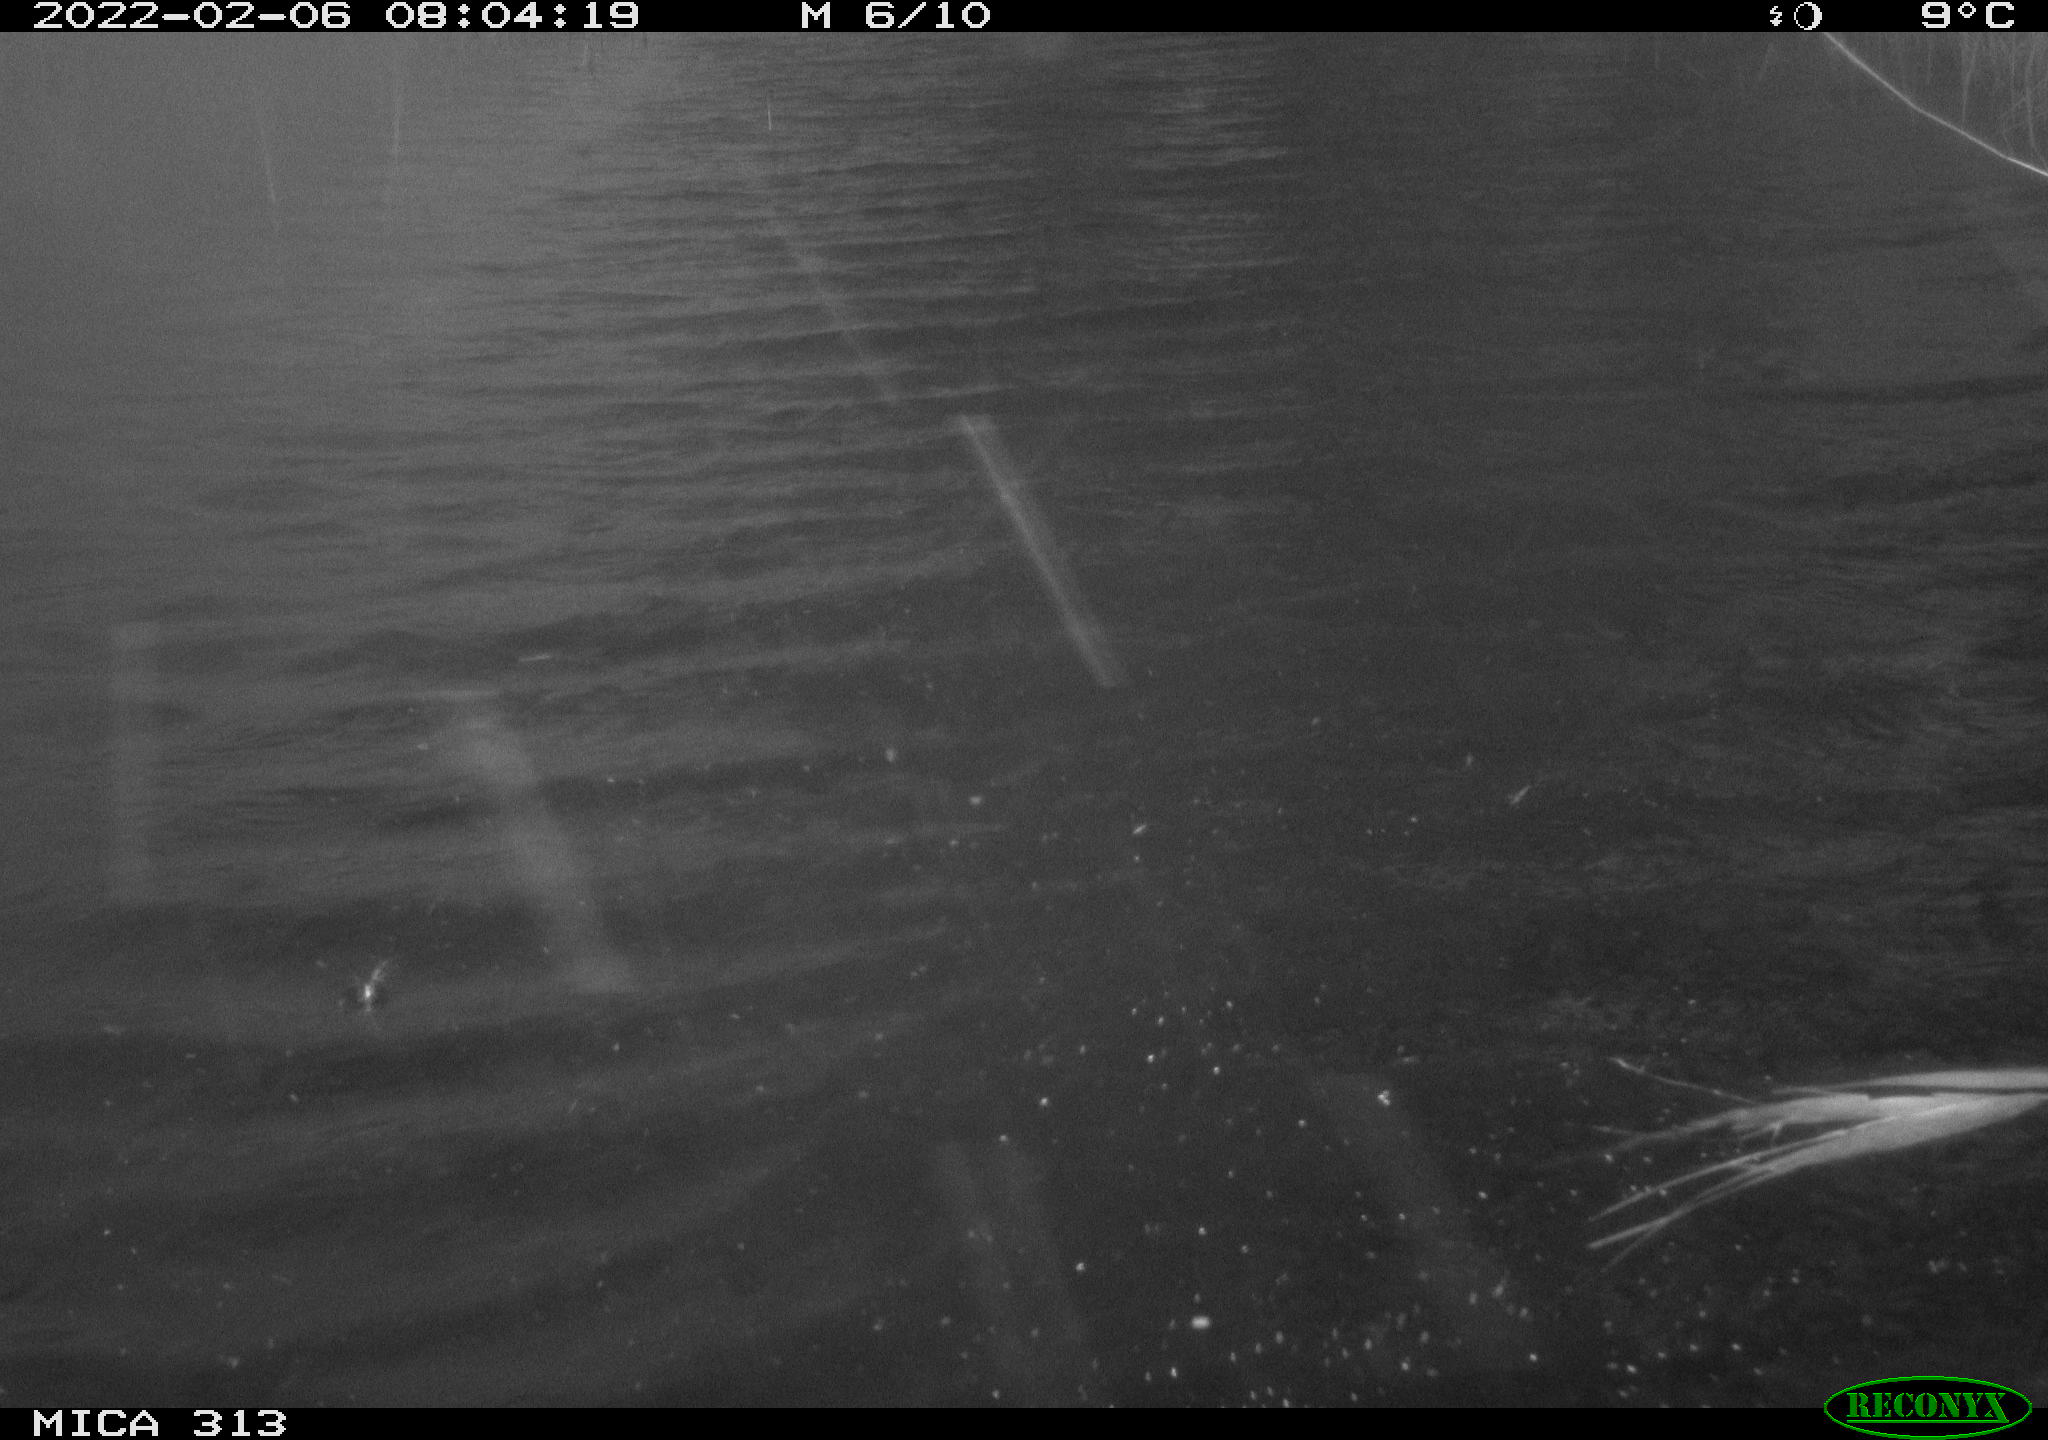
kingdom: Animalia
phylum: Chordata
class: Aves
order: Gruiformes
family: Rallidae
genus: Gallinula
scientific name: Gallinula chloropus
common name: Common moorhen
